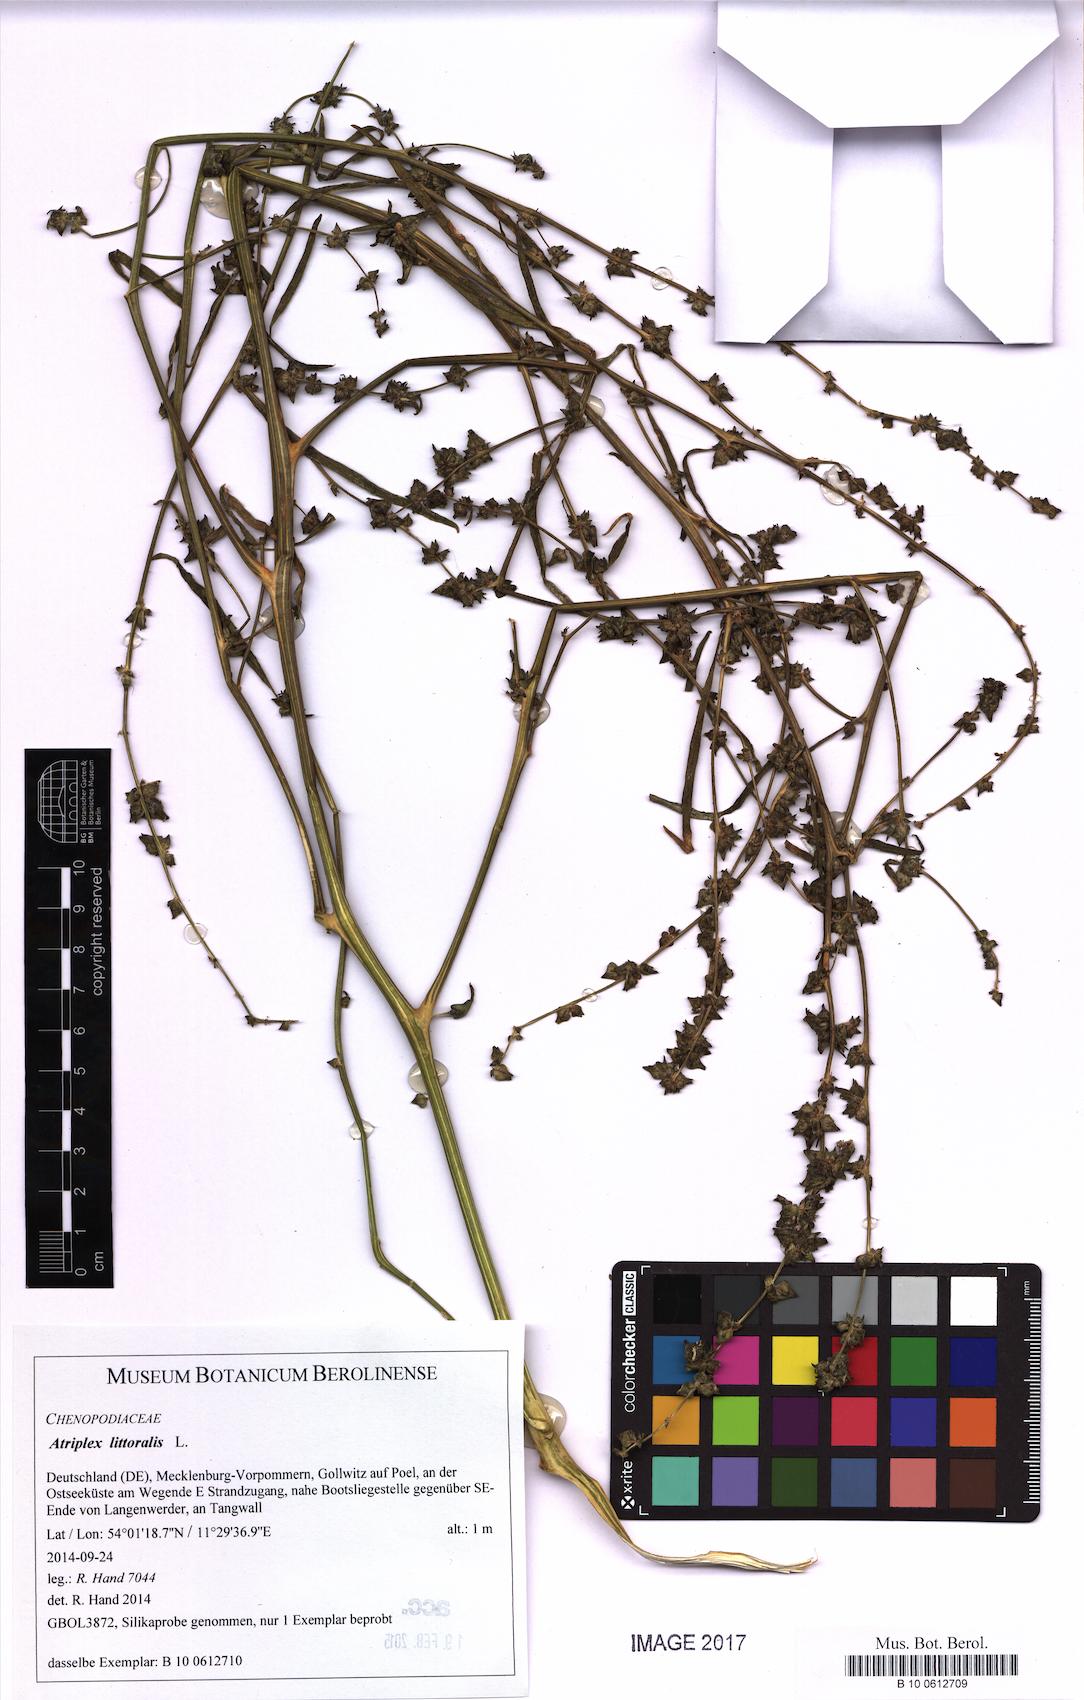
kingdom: Plantae
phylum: Tracheophyta
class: Magnoliopsida
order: Caryophyllales
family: Amaranthaceae
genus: Atriplex
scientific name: Atriplex littoralis
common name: Grass-leaved orache
